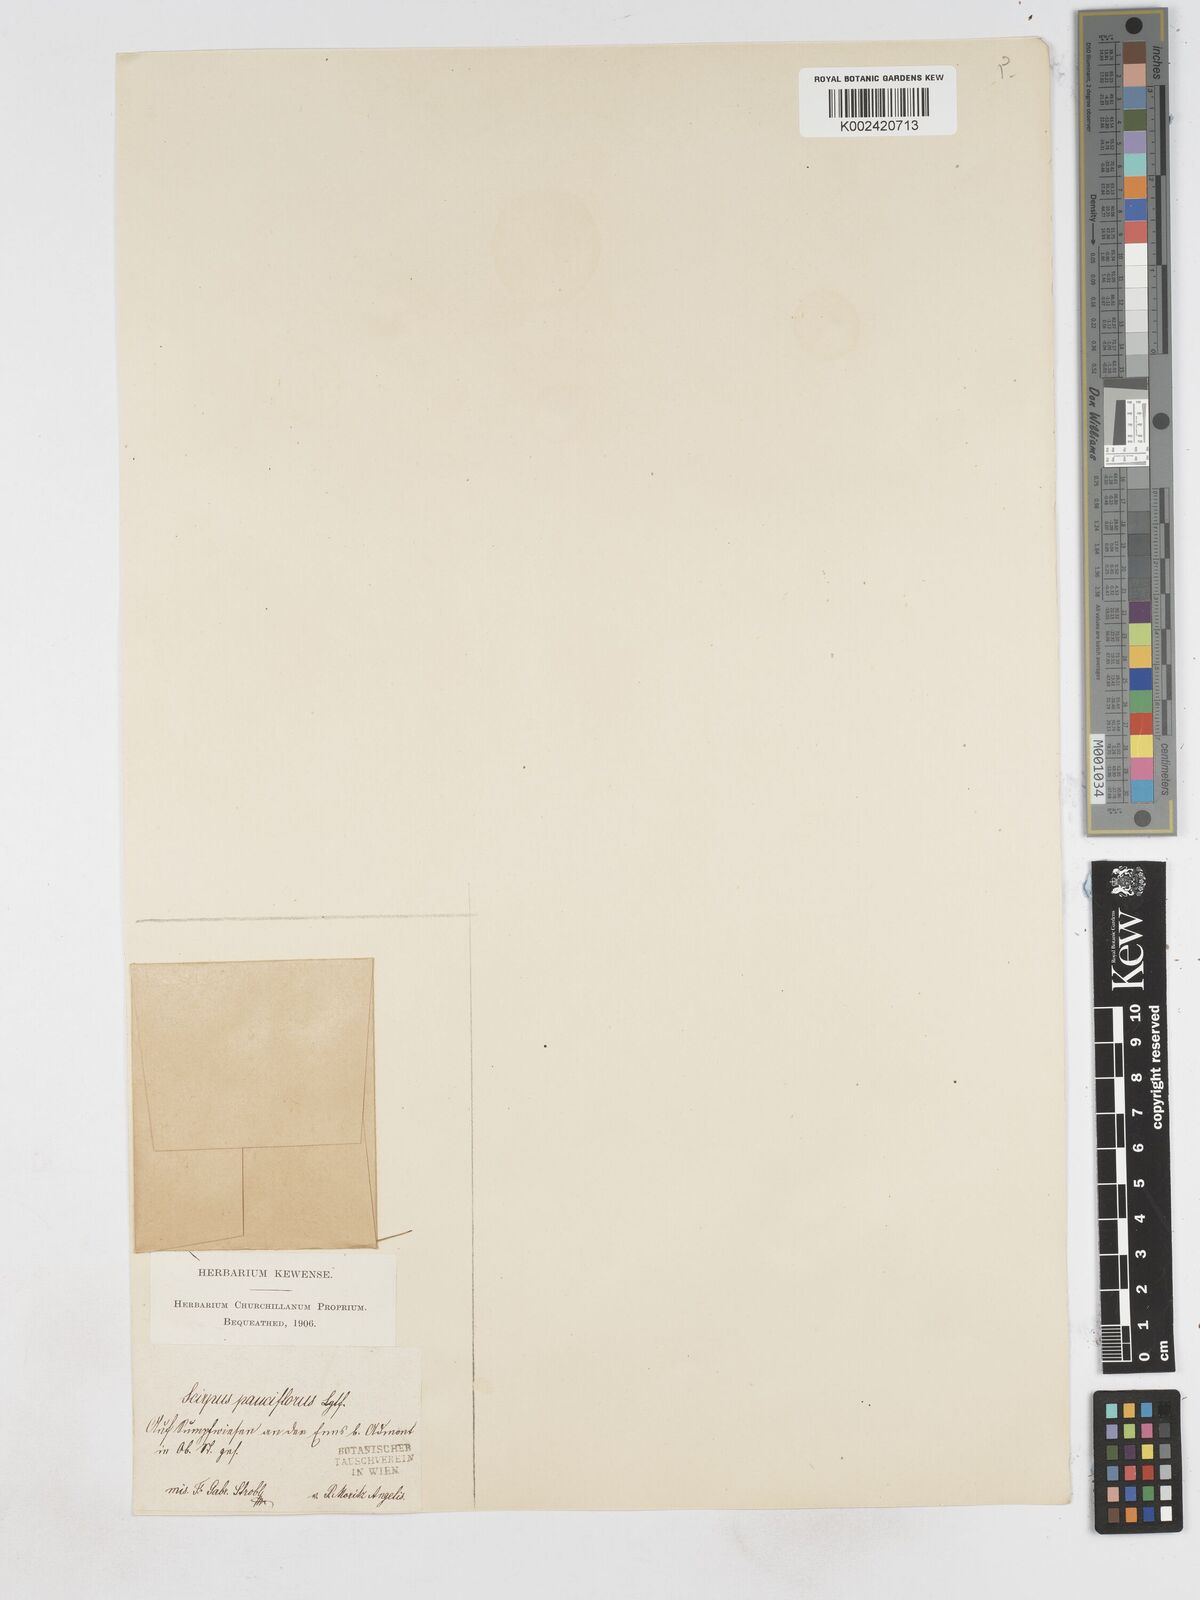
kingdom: Plantae
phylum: Tracheophyta
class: Liliopsida
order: Poales
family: Cyperaceae
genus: Eleocharis
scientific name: Eleocharis quinqueflora
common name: Few-flowered spike-rush
